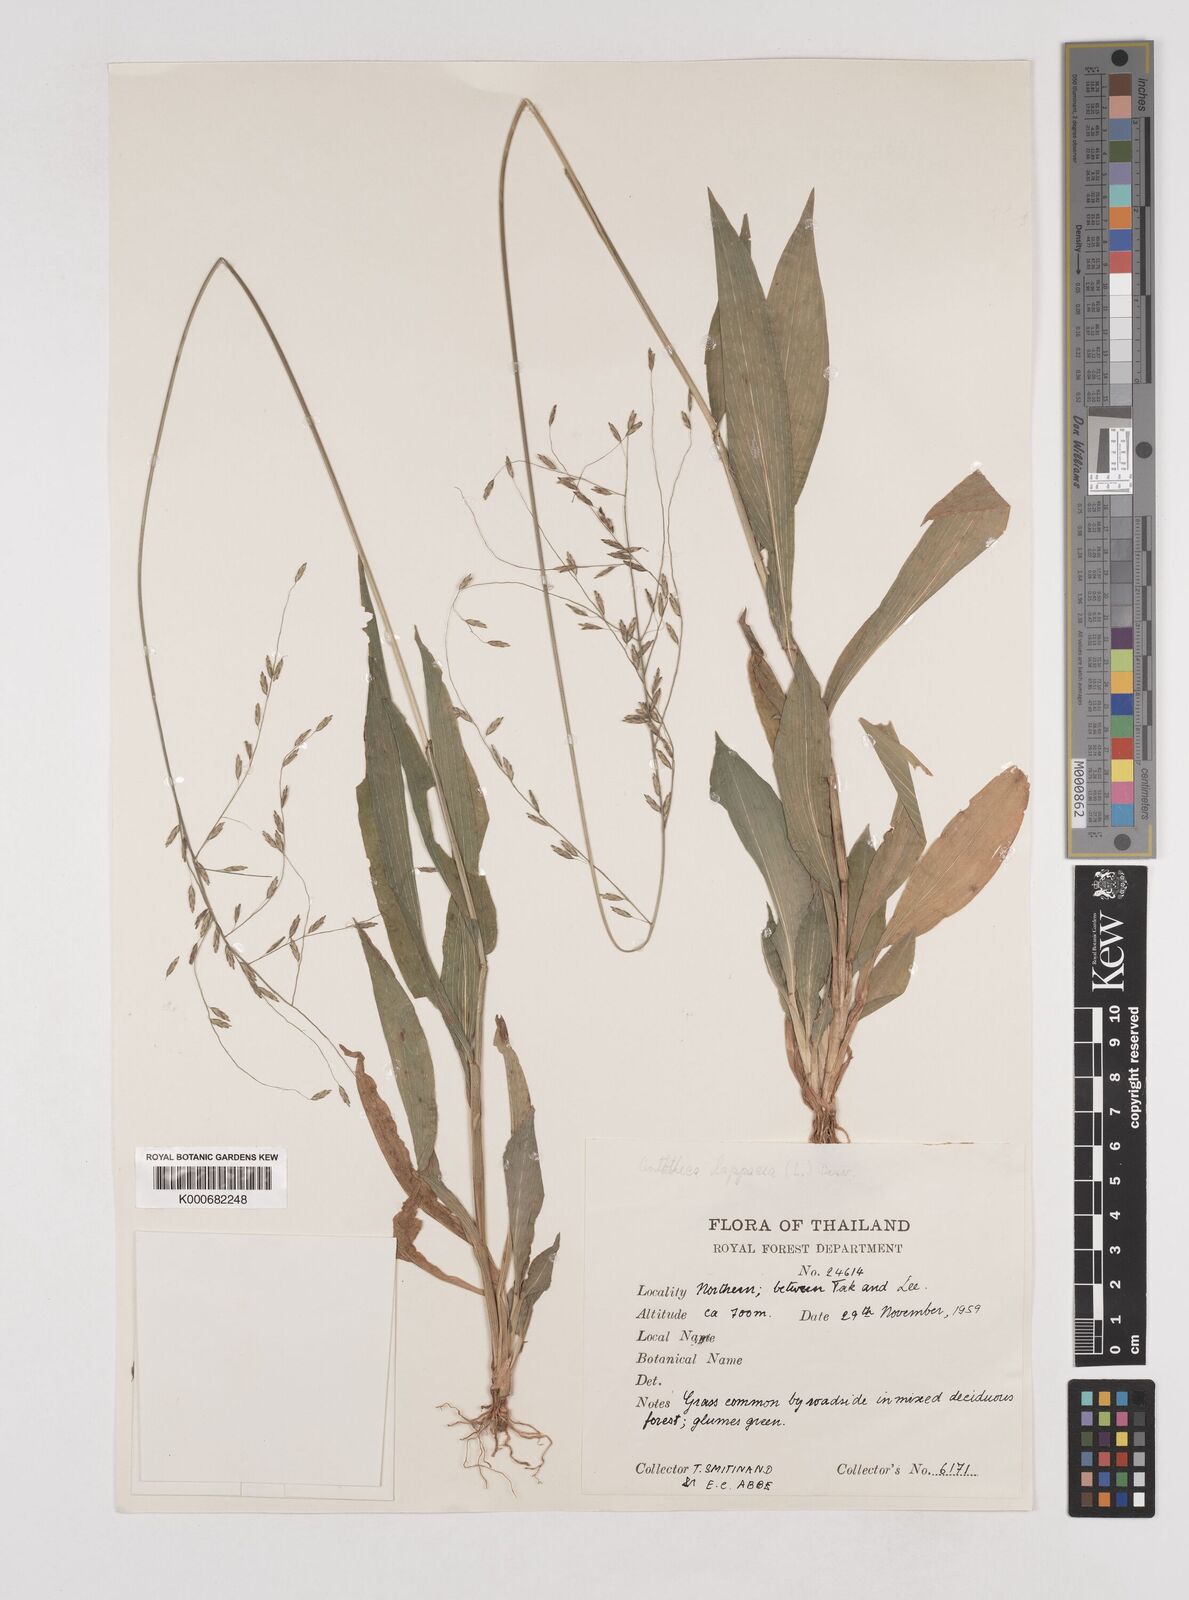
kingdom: Plantae
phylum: Tracheophyta
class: Liliopsida
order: Poales
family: Poaceae
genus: Centotheca
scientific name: Centotheca lappacea
